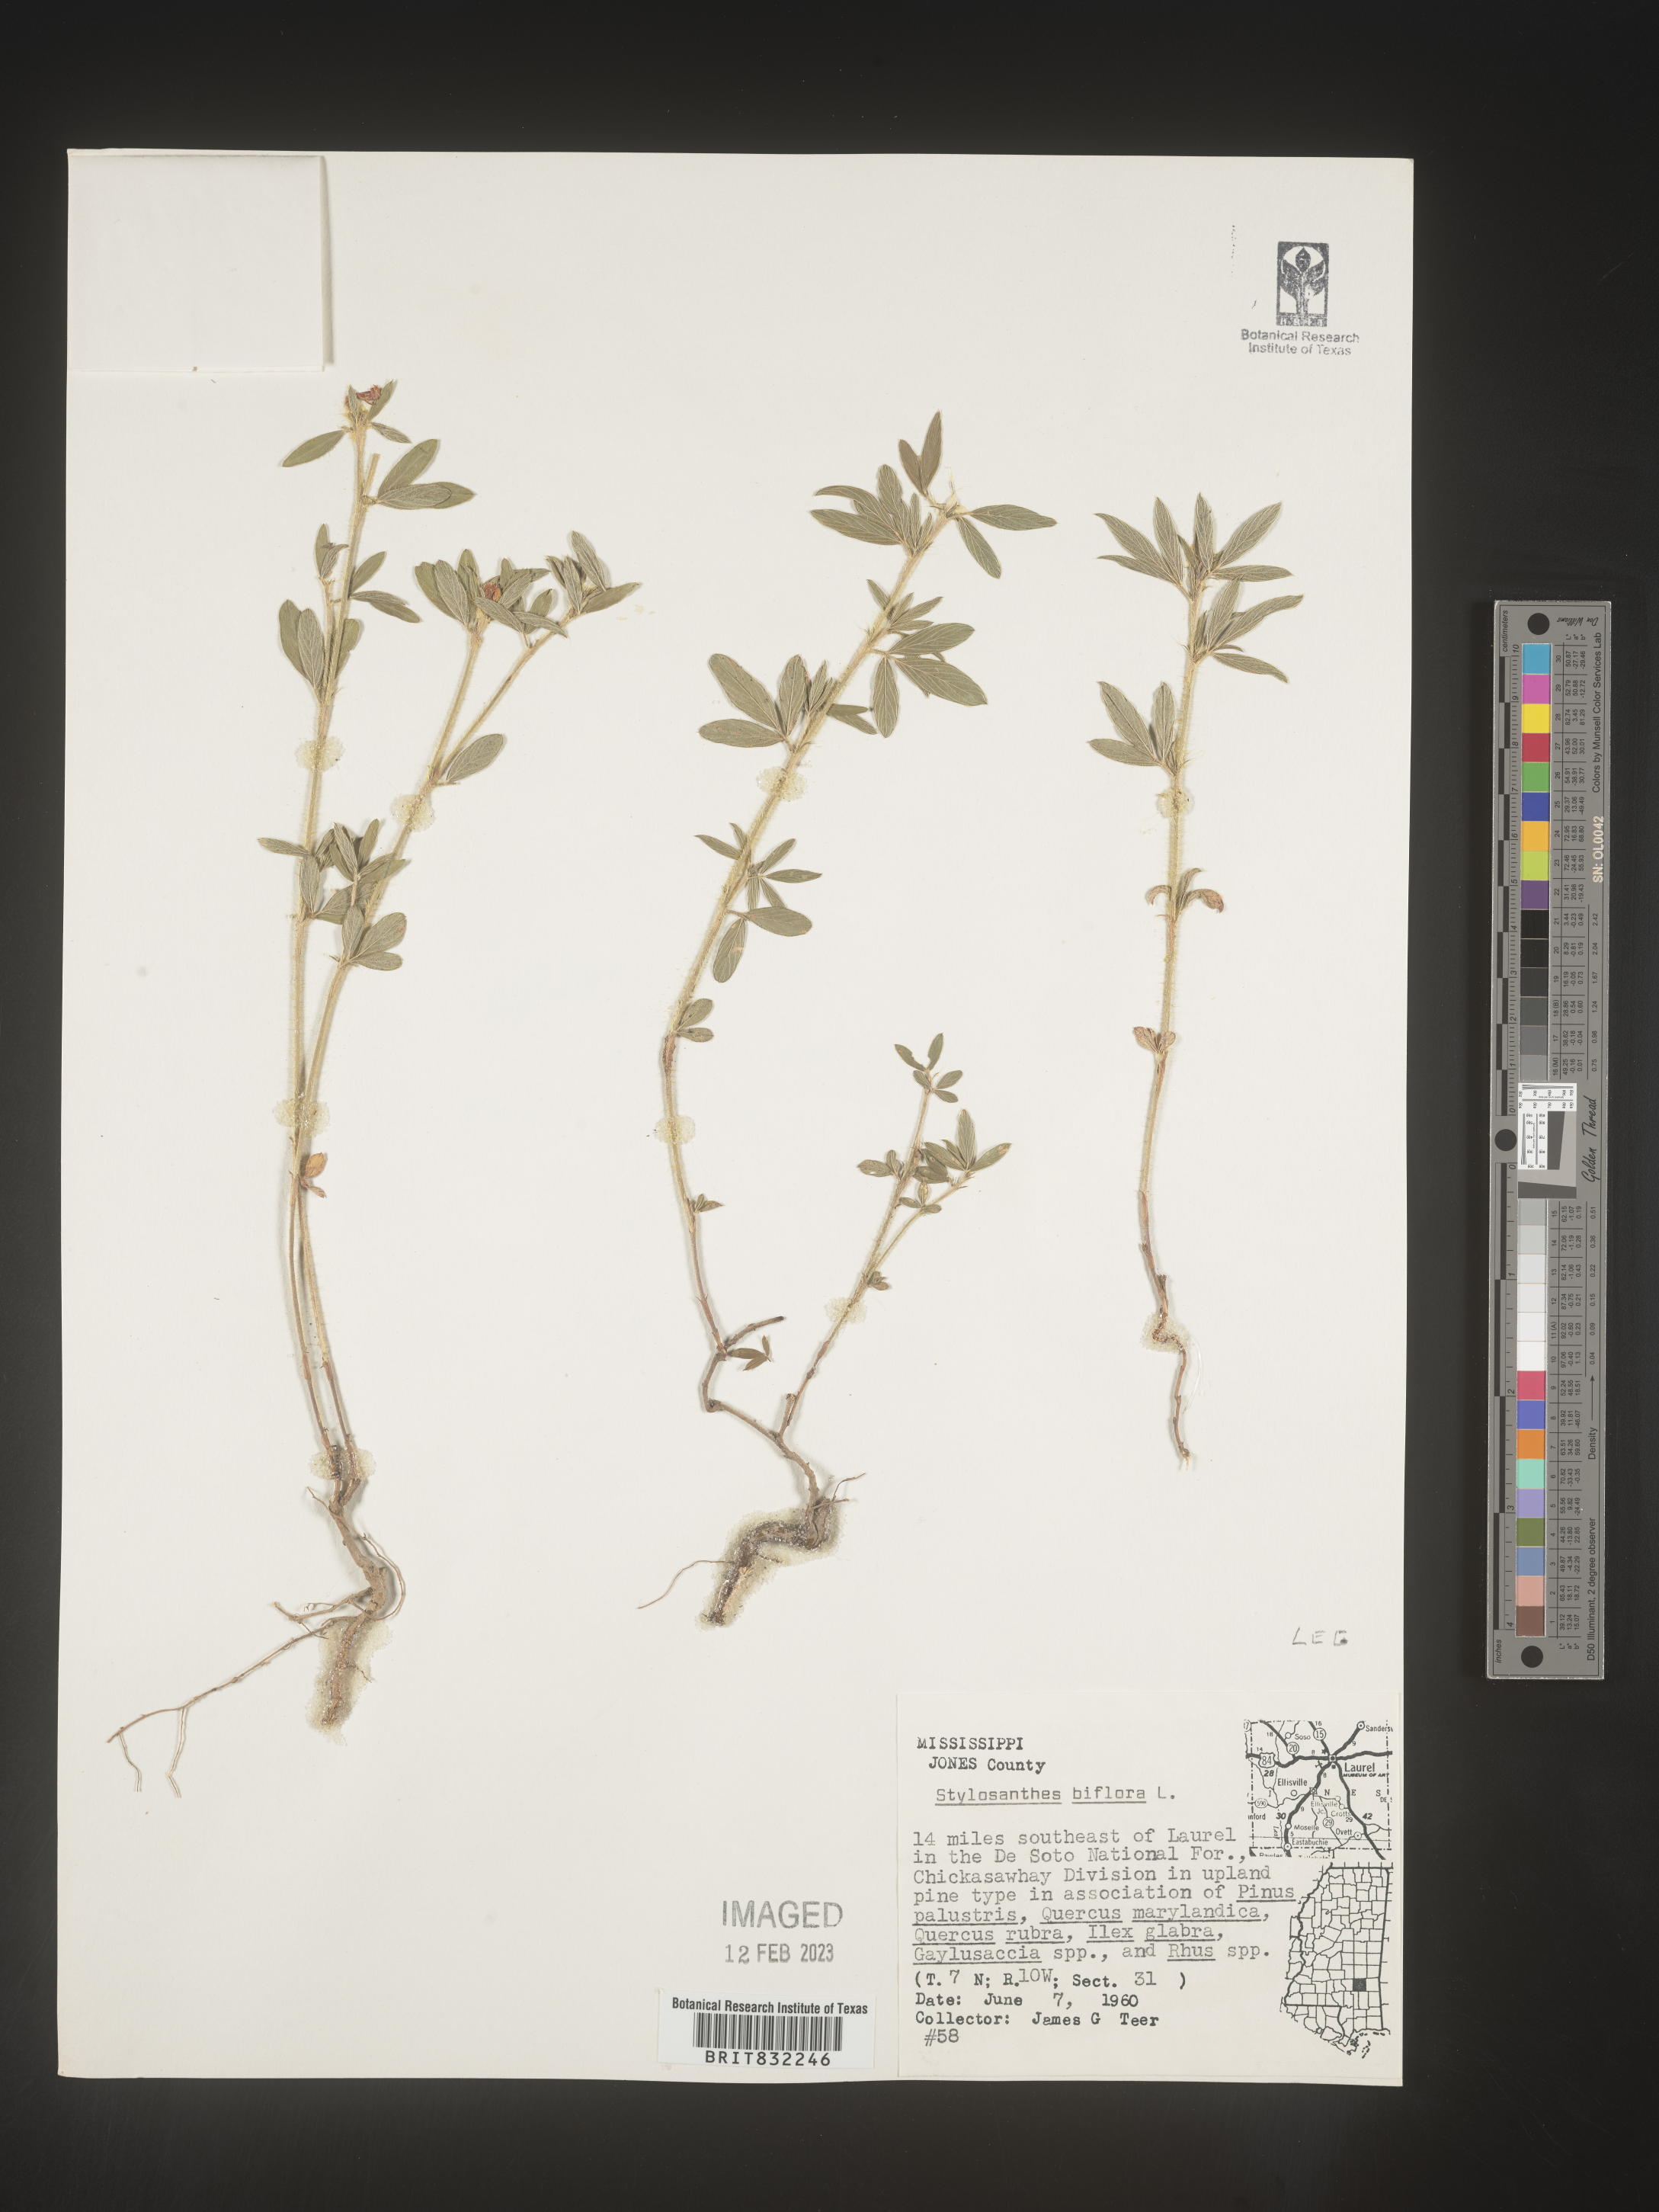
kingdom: Plantae
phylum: Tracheophyta
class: Magnoliopsida
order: Fabales
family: Fabaceae
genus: Stylosanthes
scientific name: Stylosanthes biflora
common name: Two-flower pencil-flower
